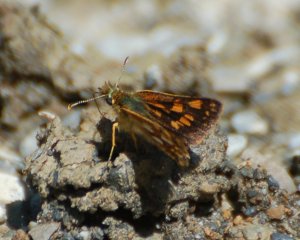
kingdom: Animalia
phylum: Arthropoda
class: Insecta
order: Lepidoptera
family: Hesperiidae
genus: Carterocephalus
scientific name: Carterocephalus palaemon
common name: Chequered Skipper
